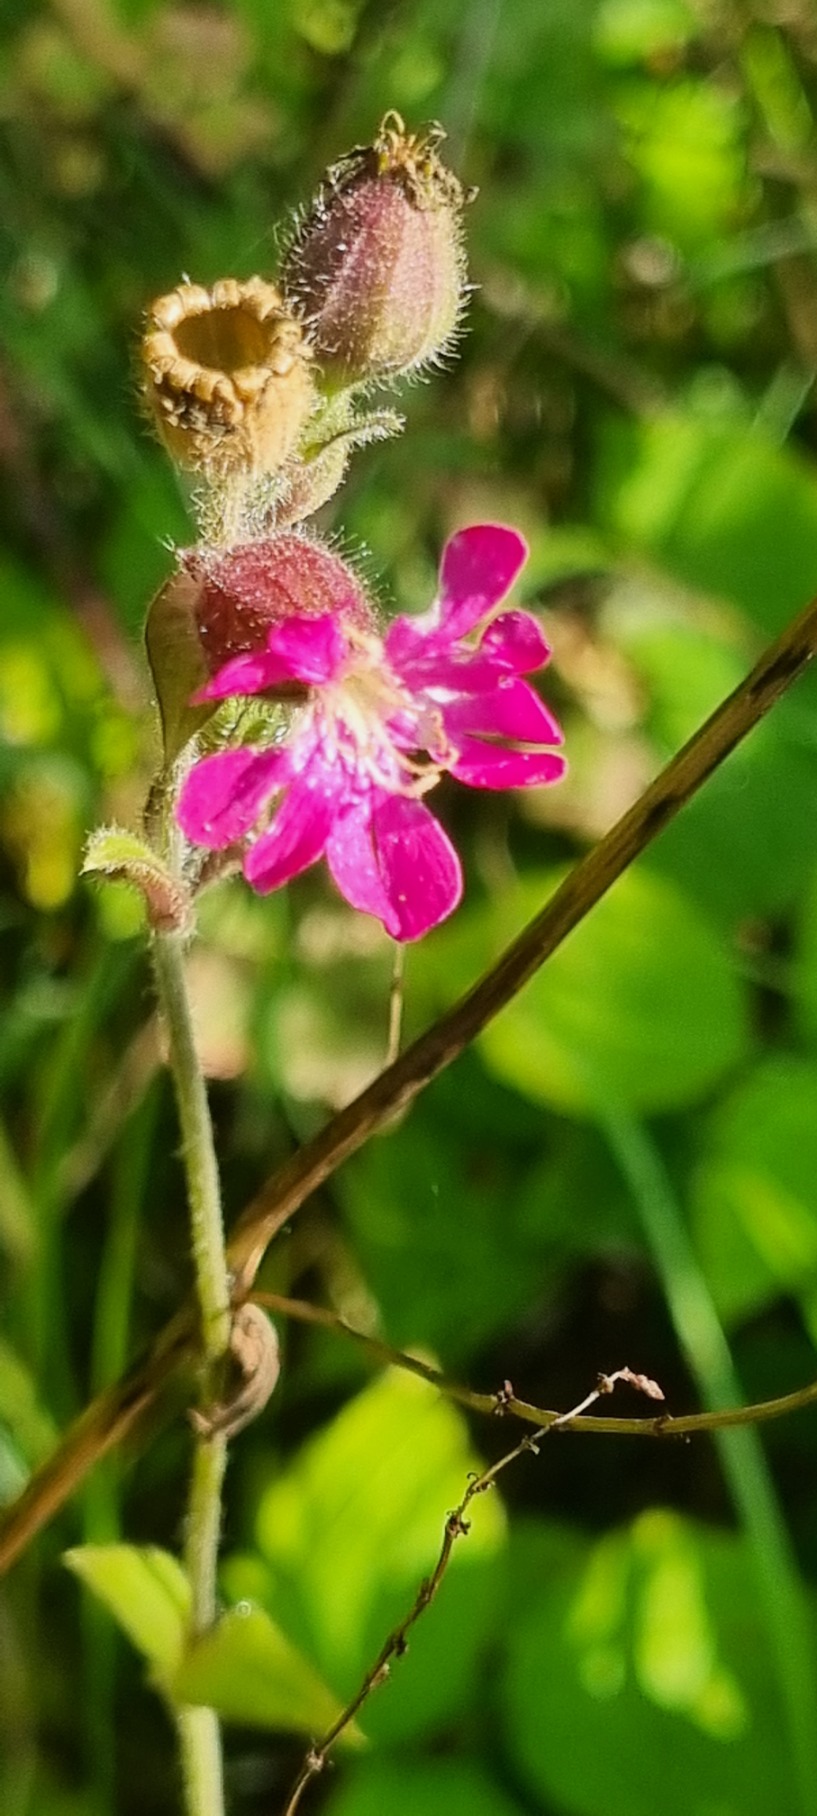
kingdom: Plantae
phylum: Tracheophyta
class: Magnoliopsida
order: Caryophyllales
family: Caryophyllaceae
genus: Silene
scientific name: Silene dioica
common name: Dagpragtstjerne
